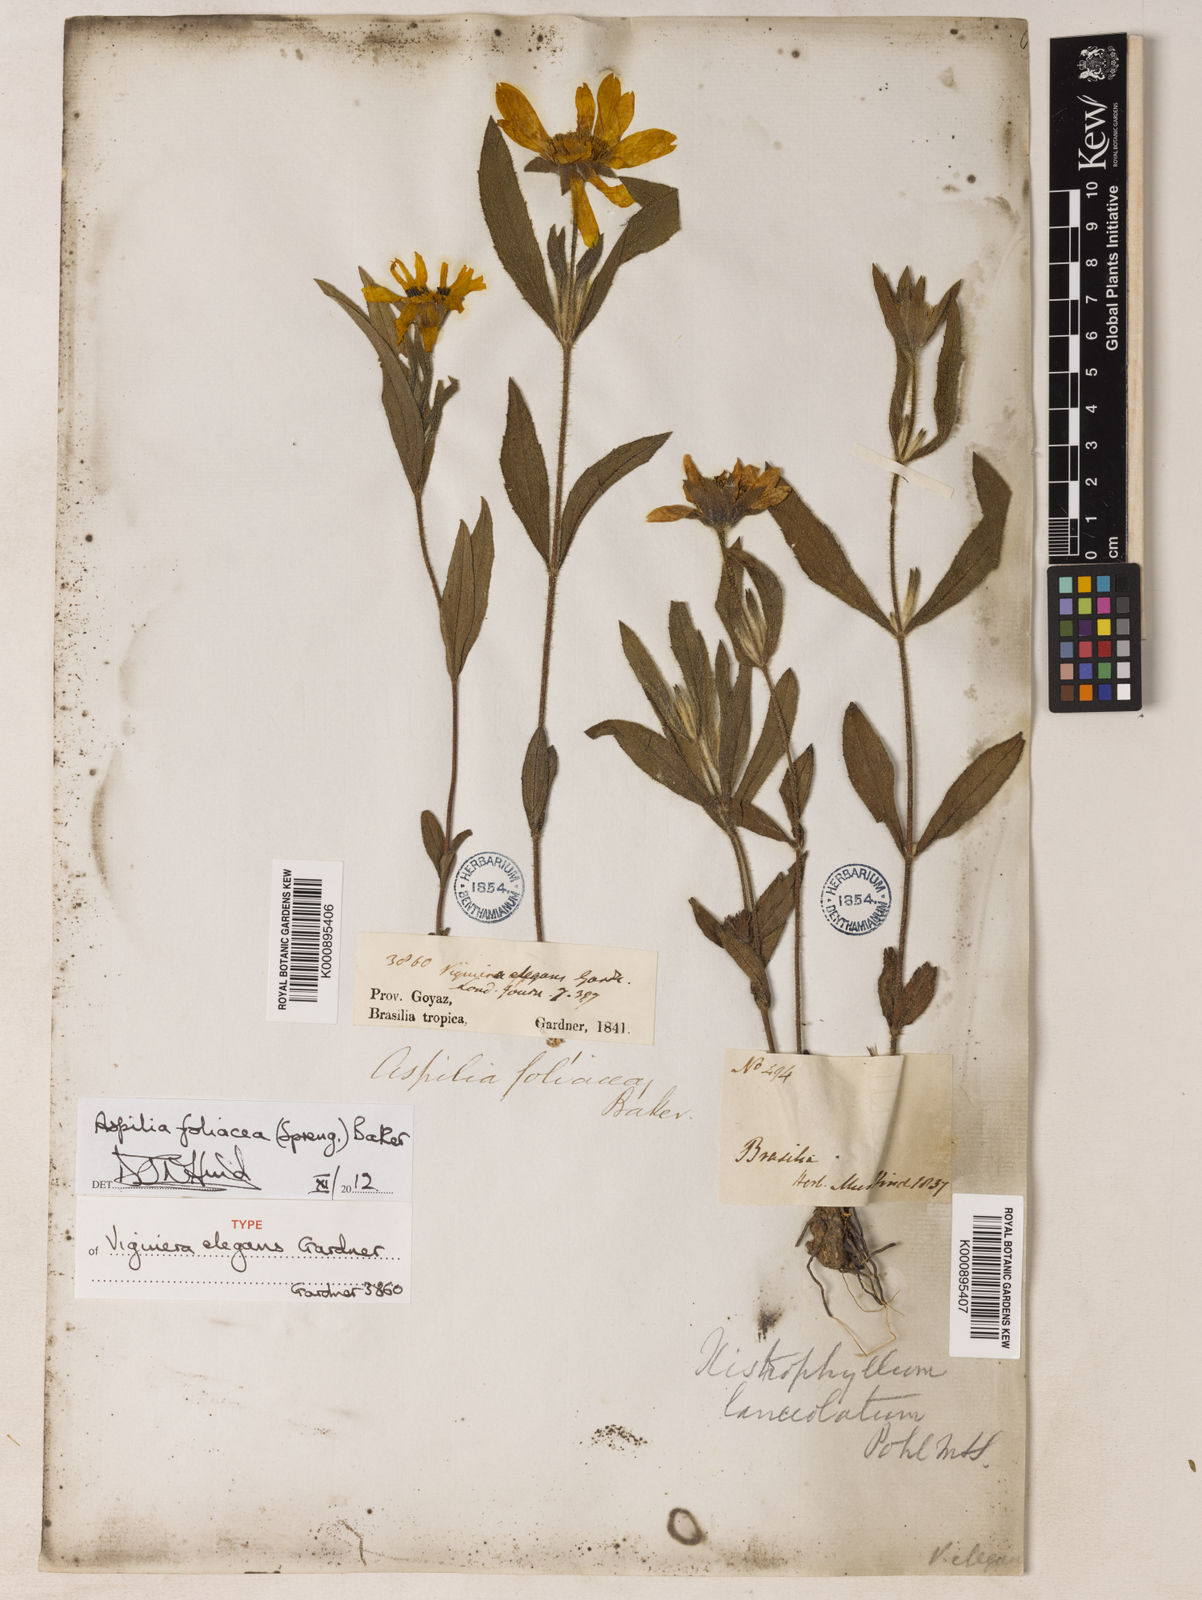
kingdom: Plantae
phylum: Tracheophyta
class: Magnoliopsida
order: Asterales
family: Asteraceae
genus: Wedelia
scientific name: Wedelia foliacea
